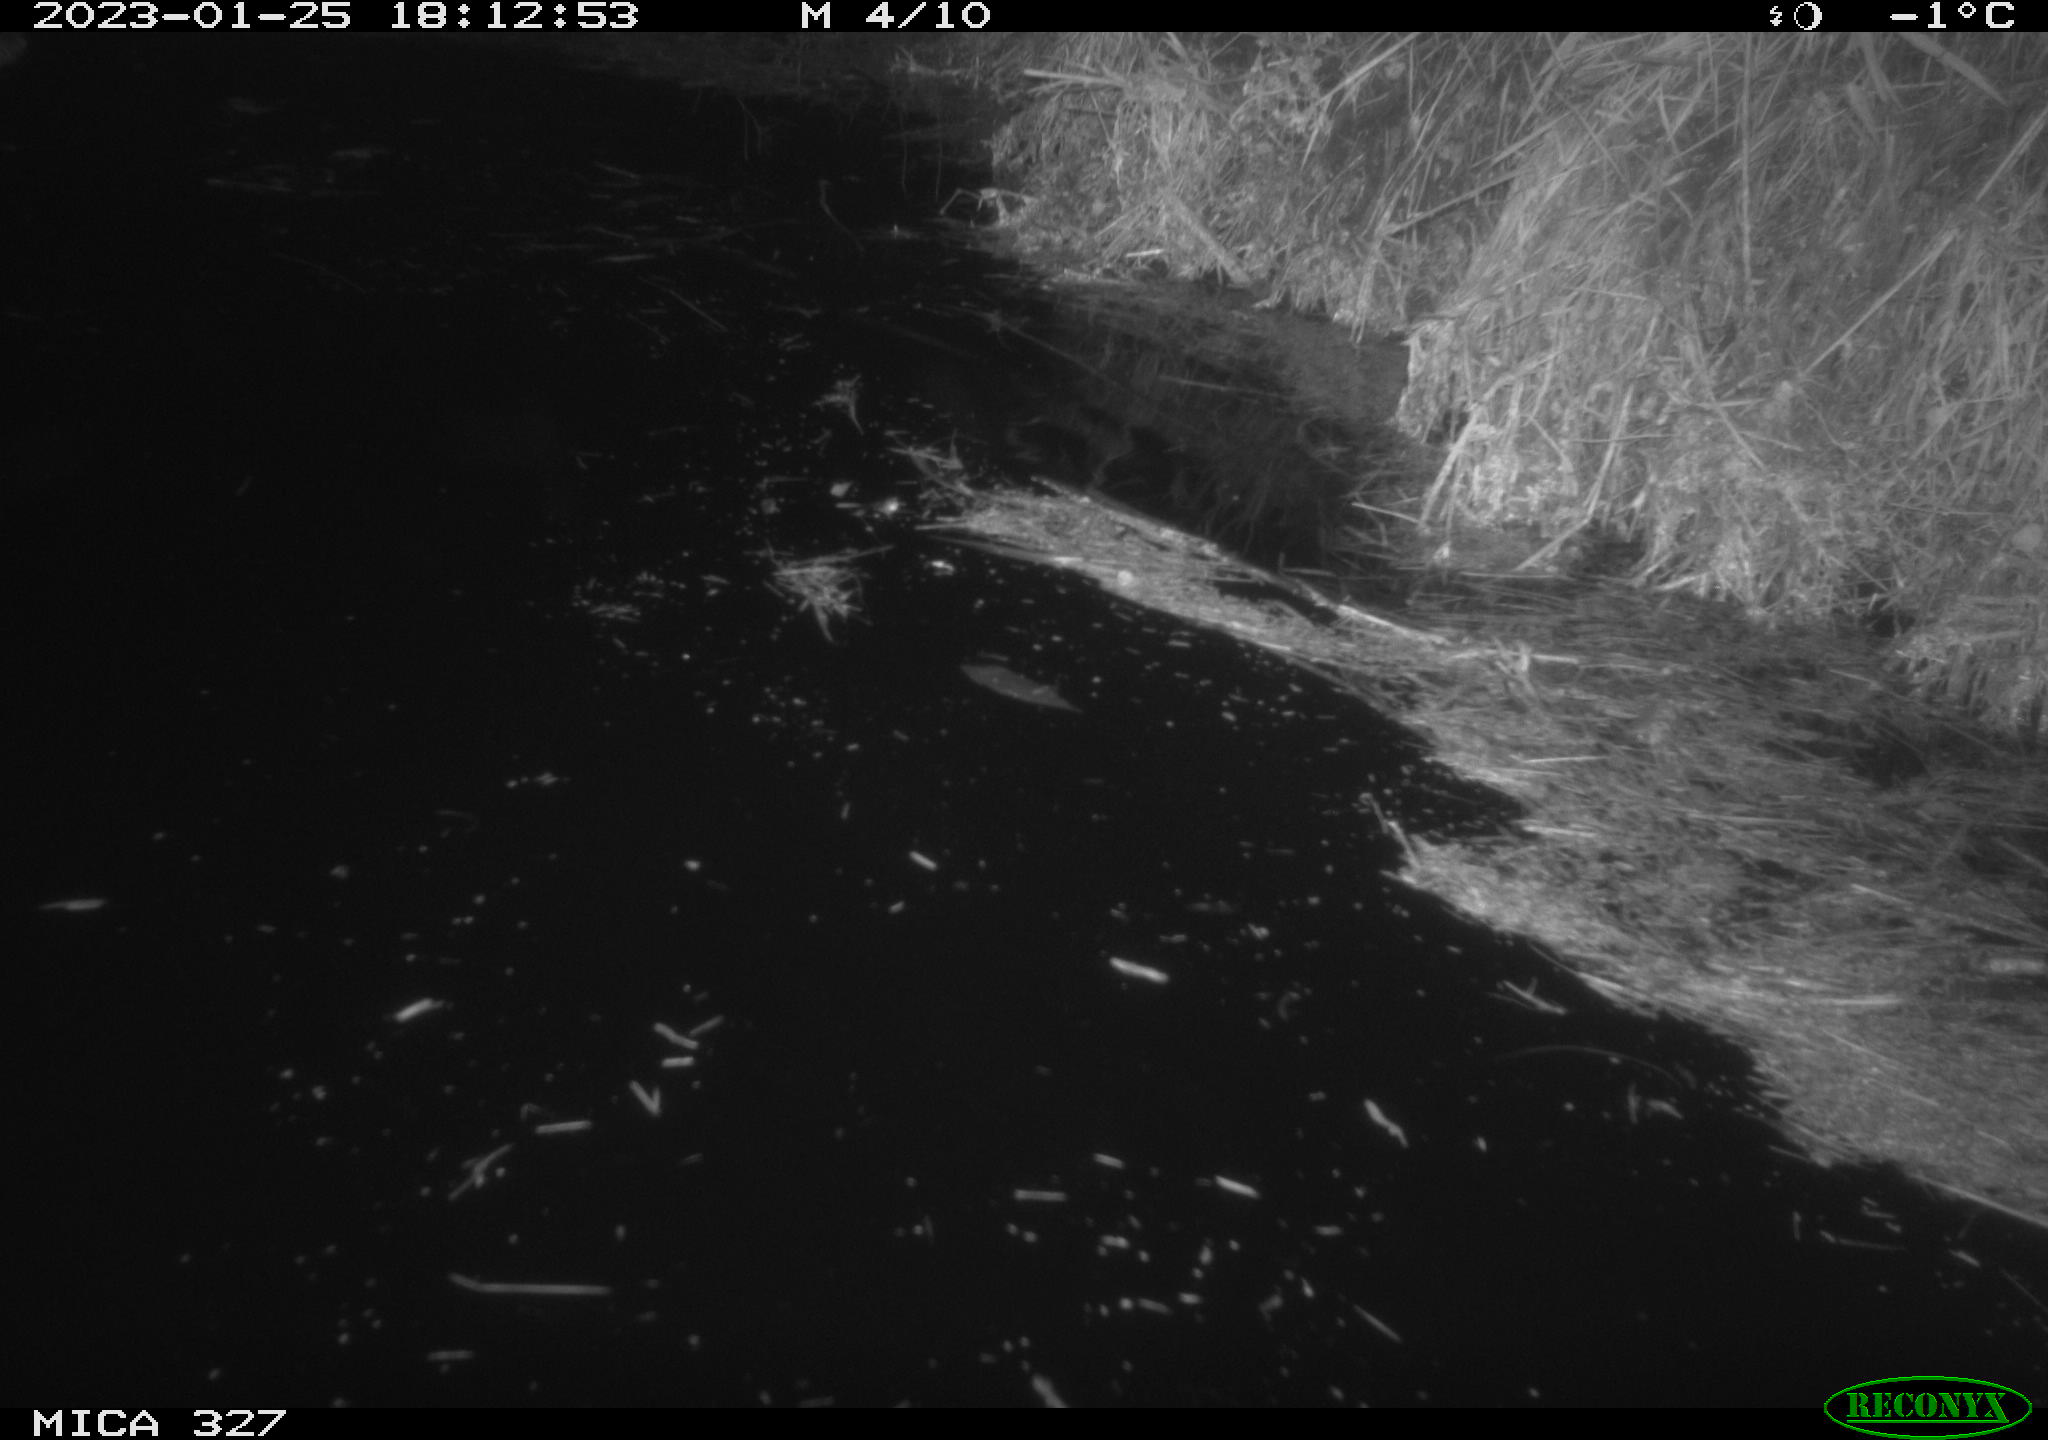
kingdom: Animalia
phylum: Chordata
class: Mammalia
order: Rodentia
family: Cricetidae
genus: Ondatra
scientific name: Ondatra zibethicus
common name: Muskrat
